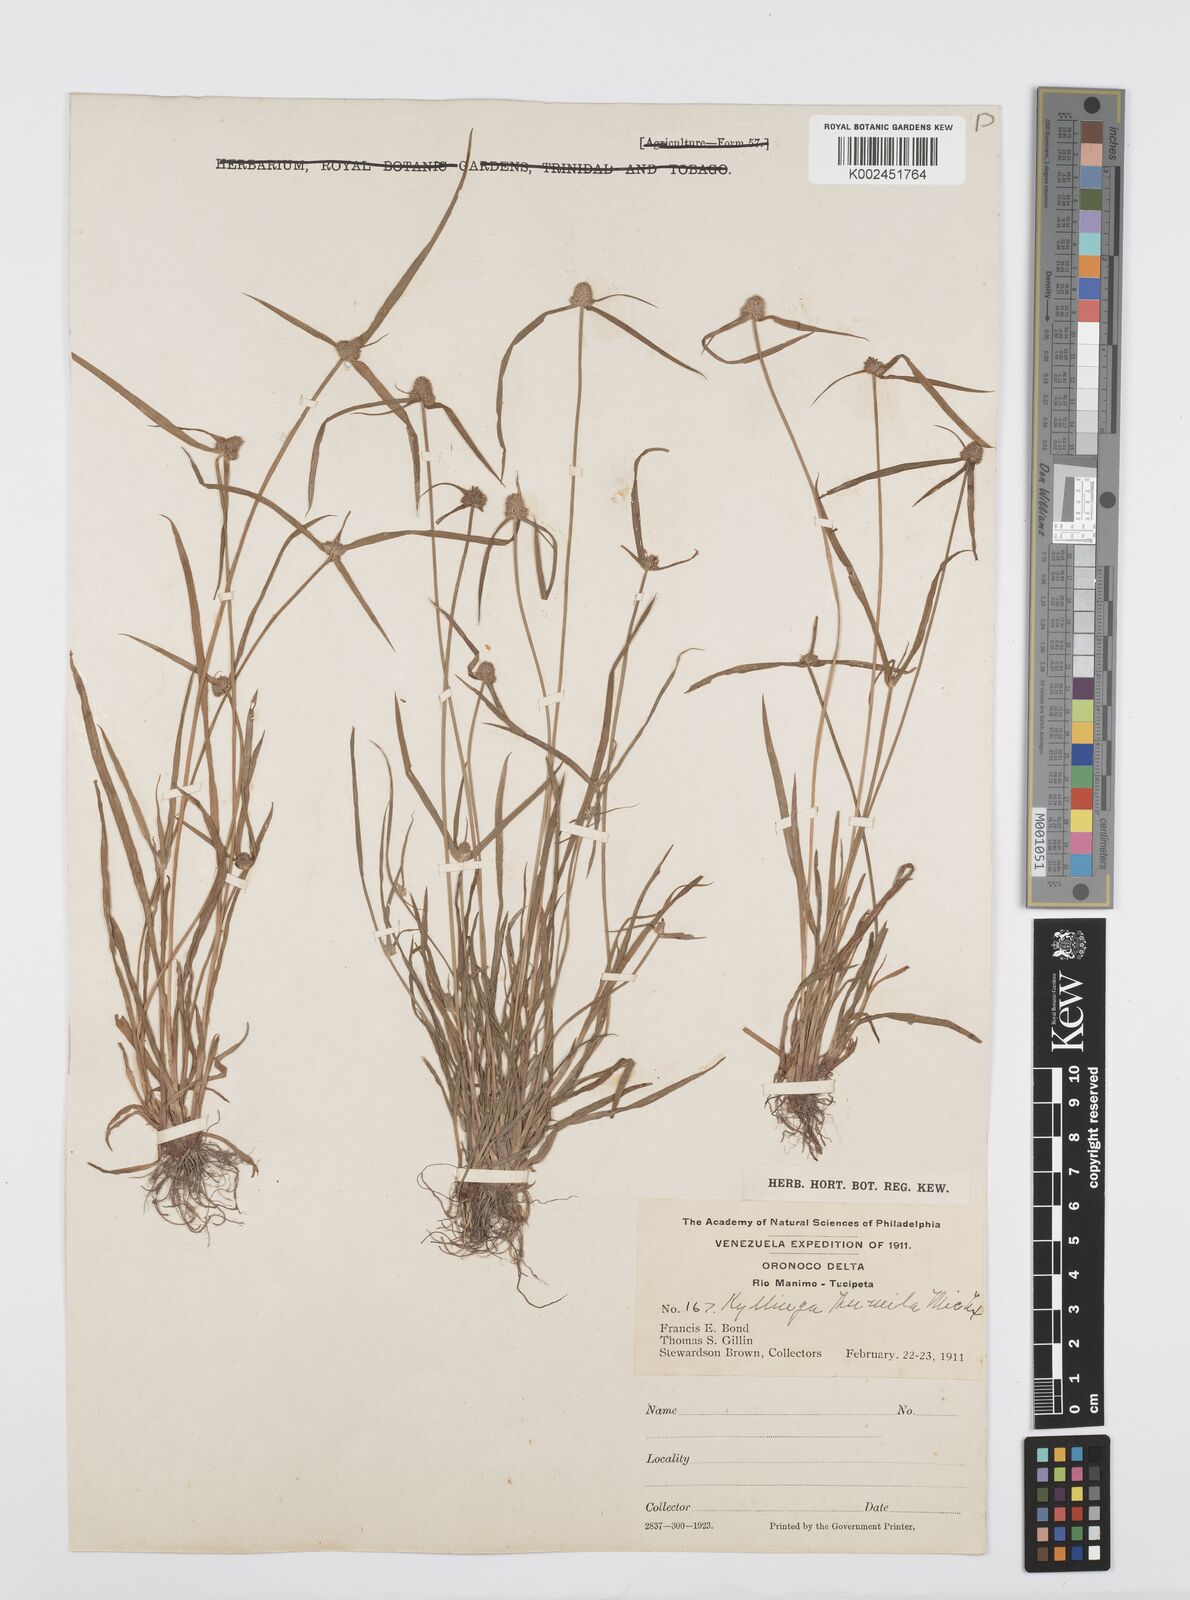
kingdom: Plantae
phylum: Tracheophyta
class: Liliopsida
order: Poales
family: Cyperaceae
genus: Cyperus
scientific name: Cyperus
